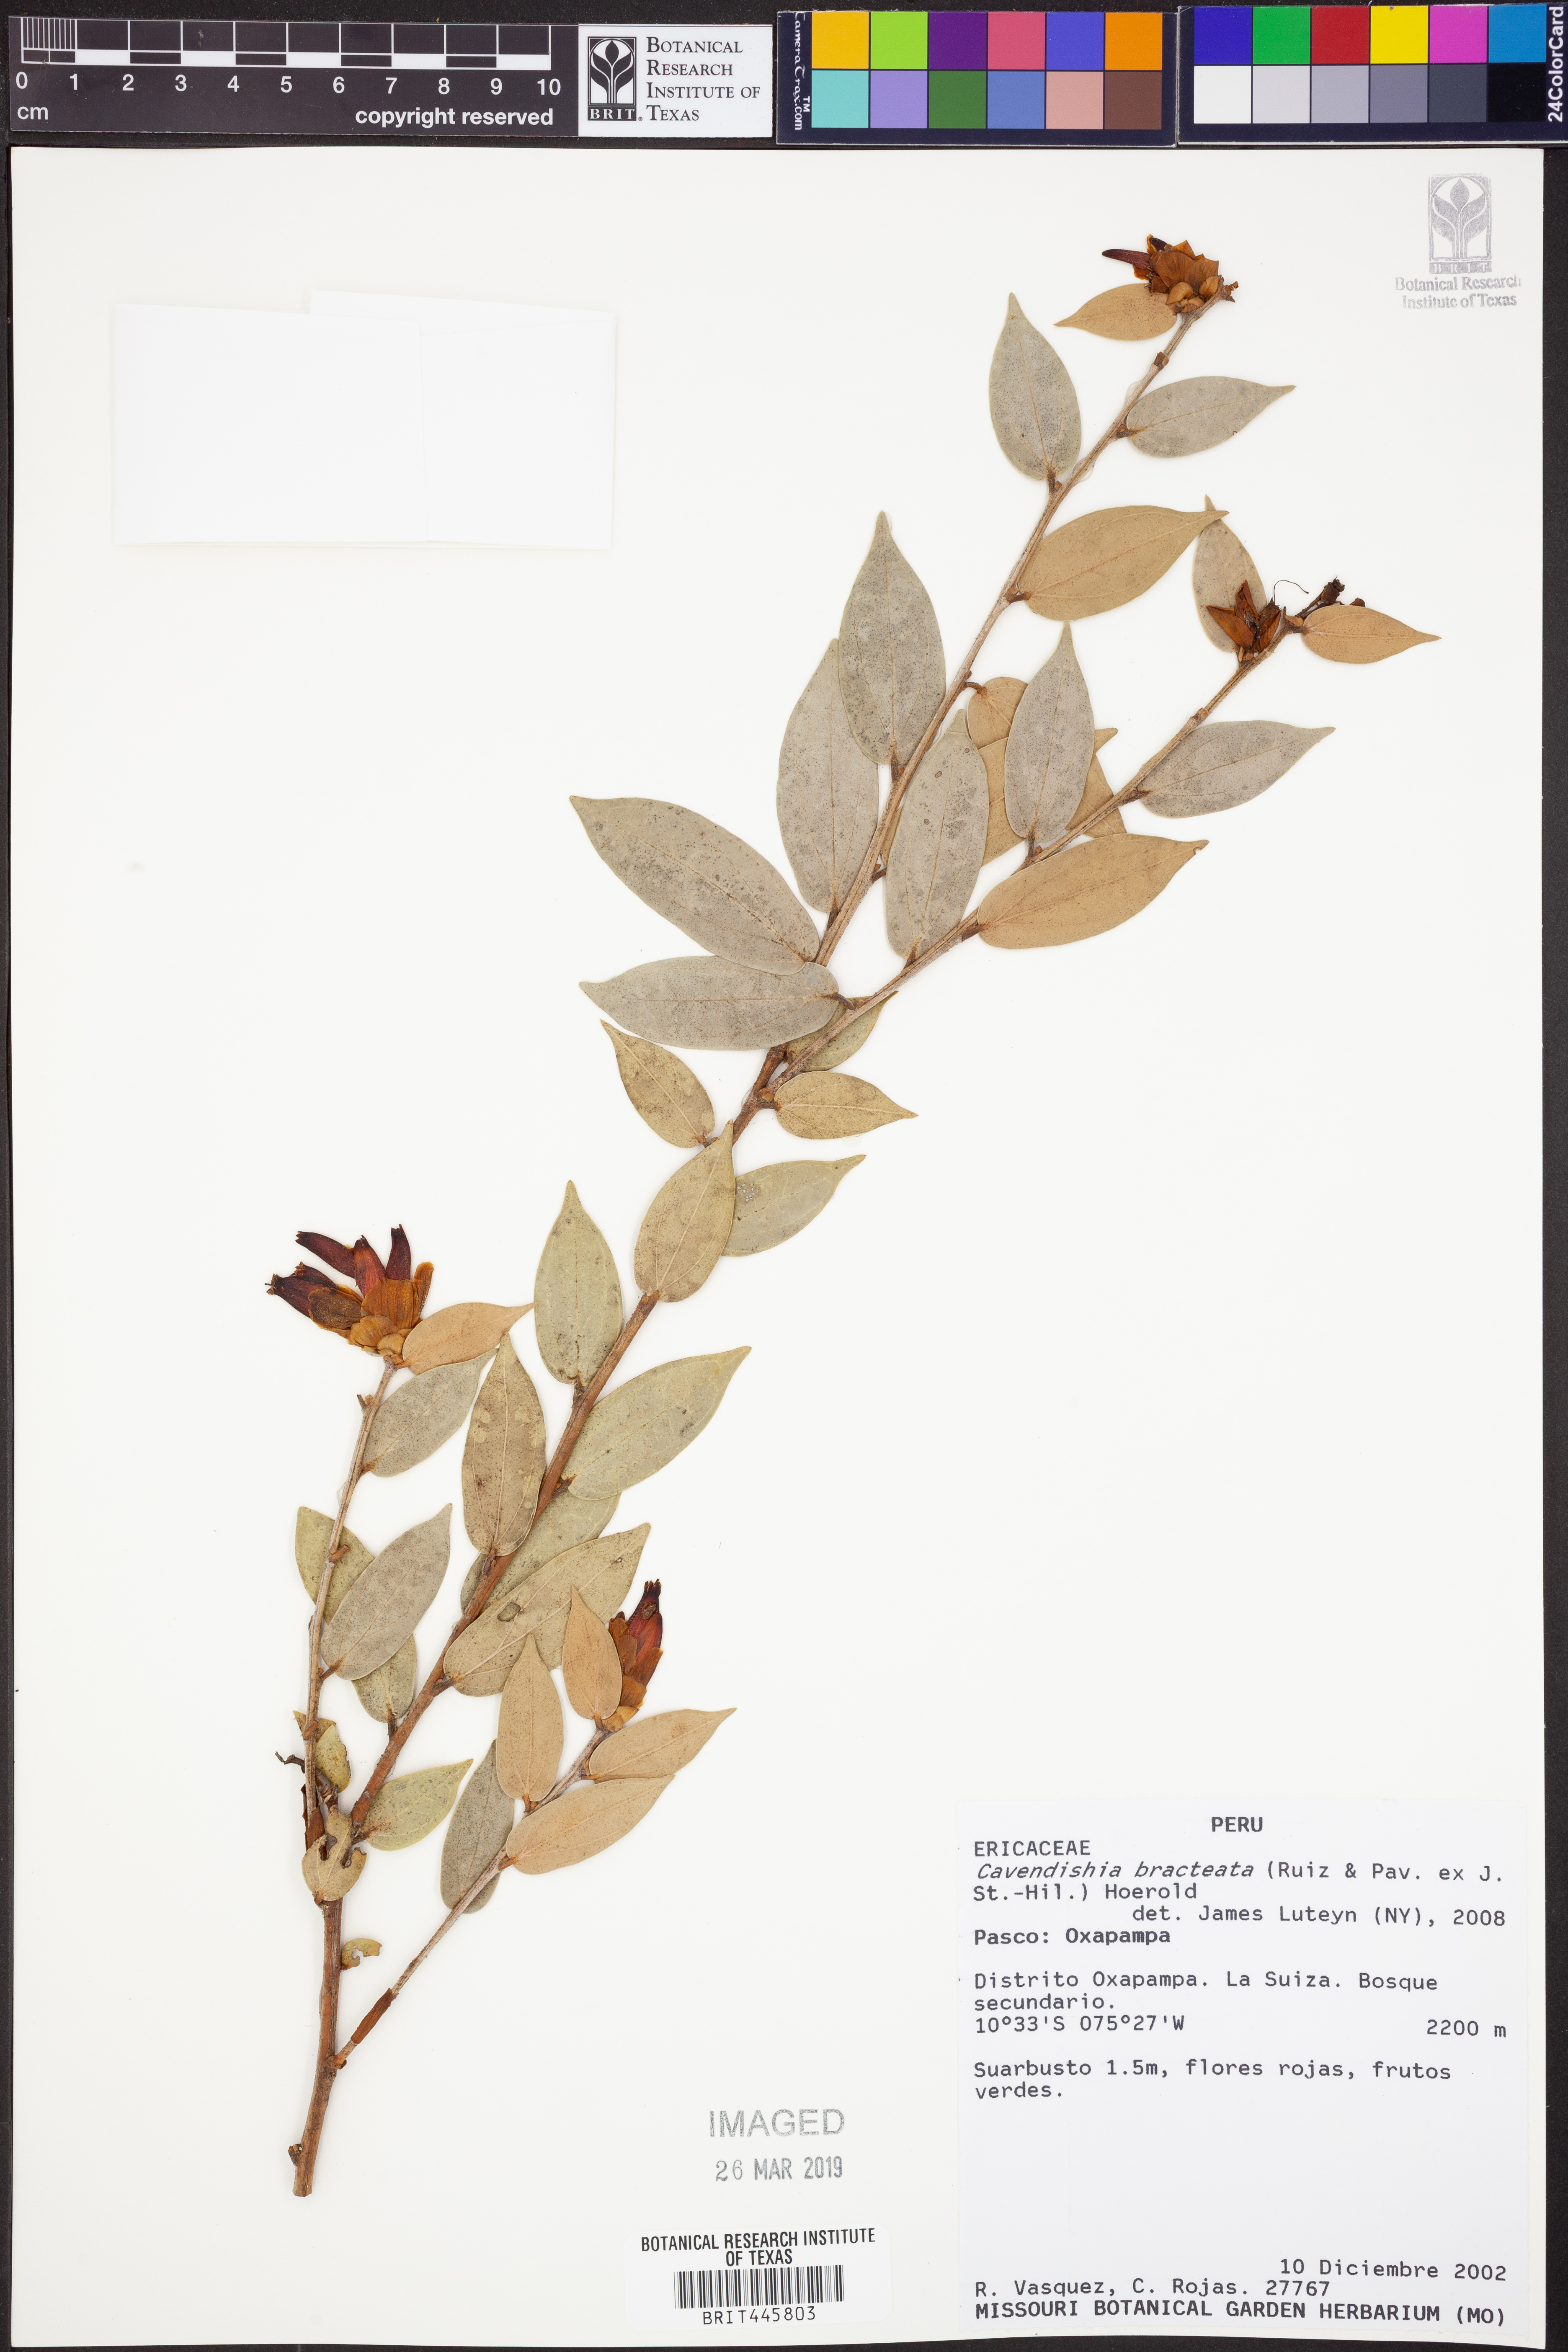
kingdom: Plantae
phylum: Tracheophyta
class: Magnoliopsida
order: Ericales
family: Ericaceae
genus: Cavendishia
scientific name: Cavendishia bracteata
